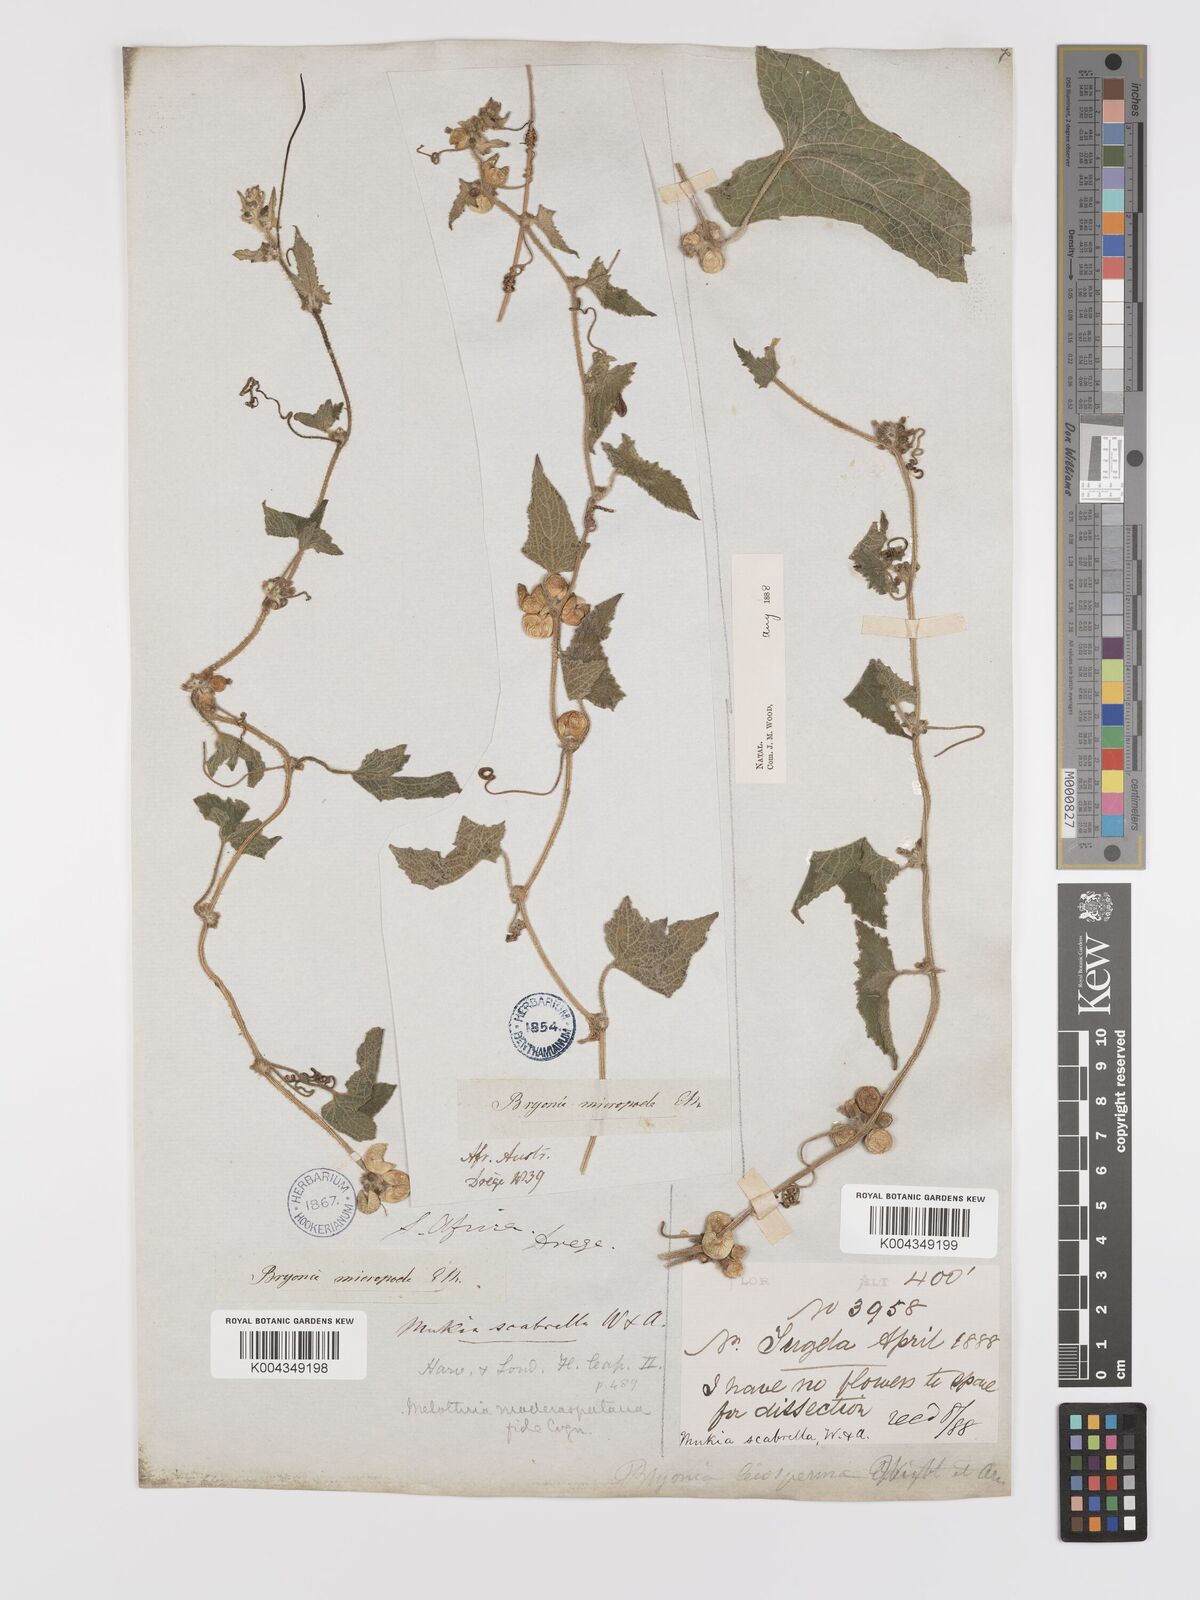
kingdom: Plantae
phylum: Tracheophyta
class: Magnoliopsida
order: Cucurbitales
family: Cucurbitaceae
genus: Cucumis
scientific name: Cucumis maderaspatanus
